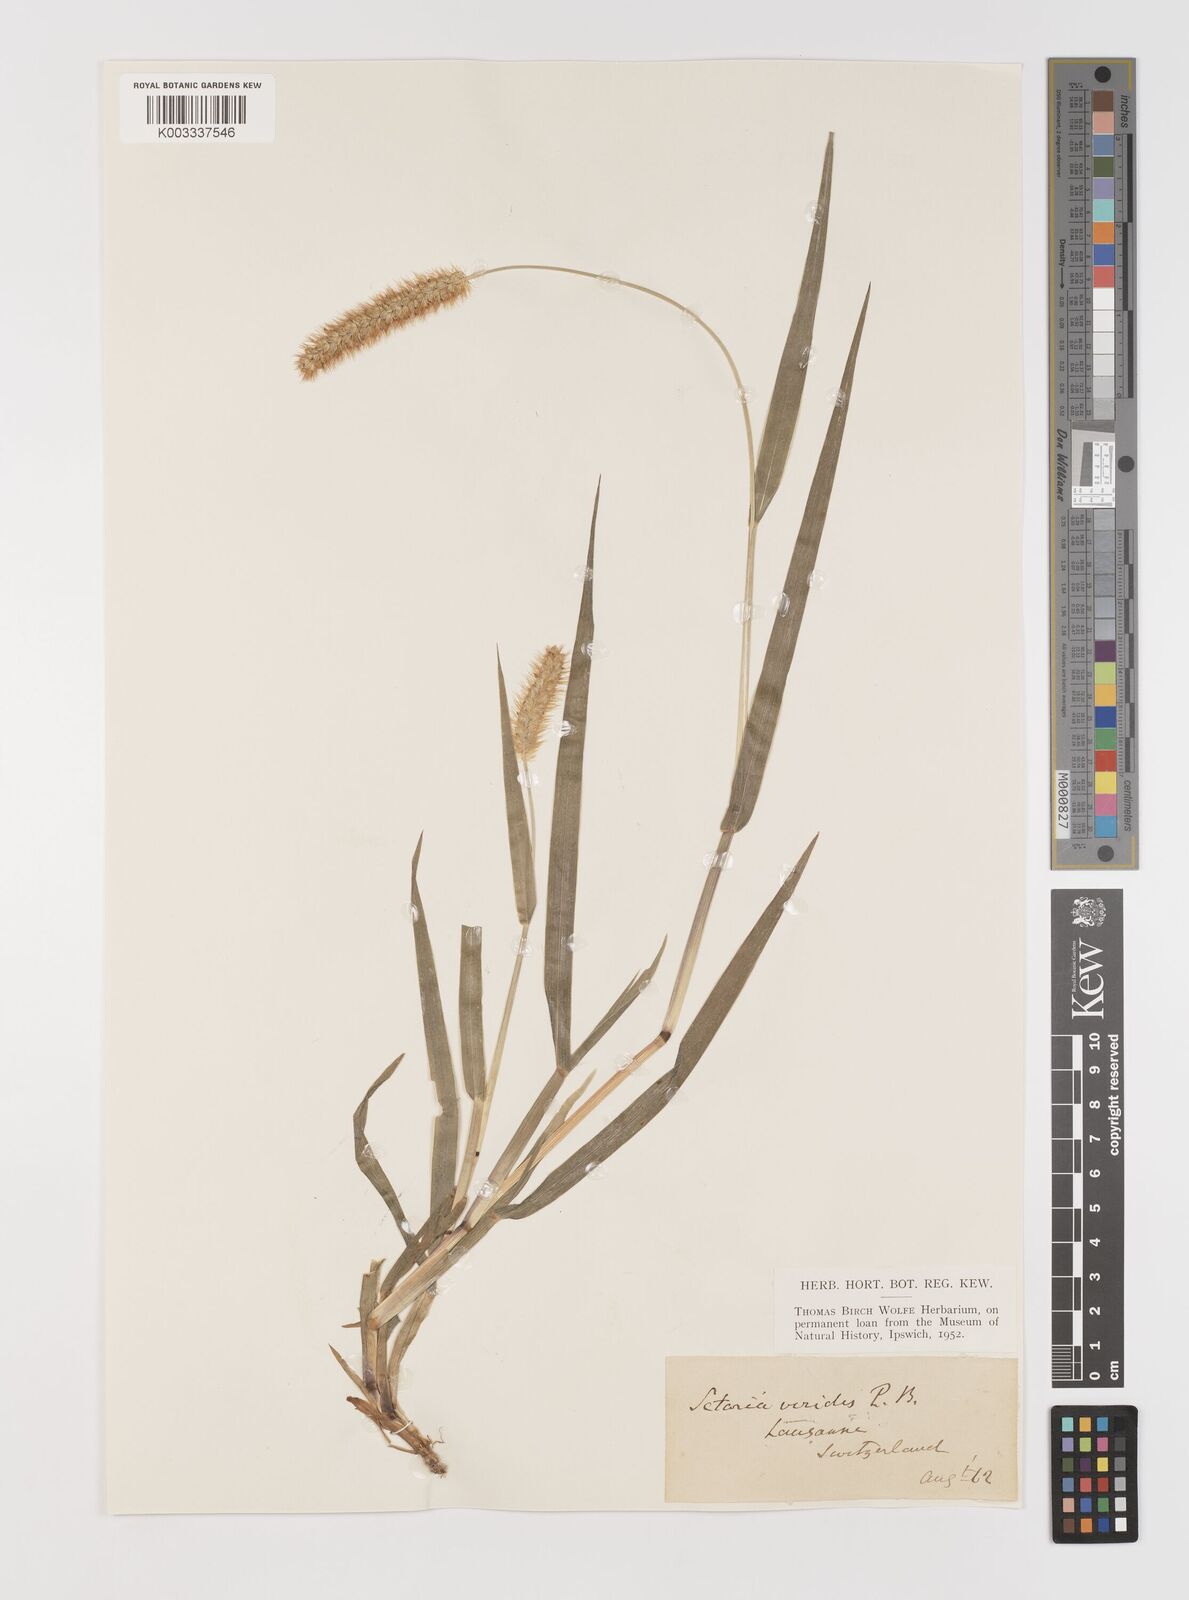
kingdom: Plantae
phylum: Tracheophyta
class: Liliopsida
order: Poales
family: Poaceae
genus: Setaria
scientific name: Setaria pumila
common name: Yellow bristle-grass
